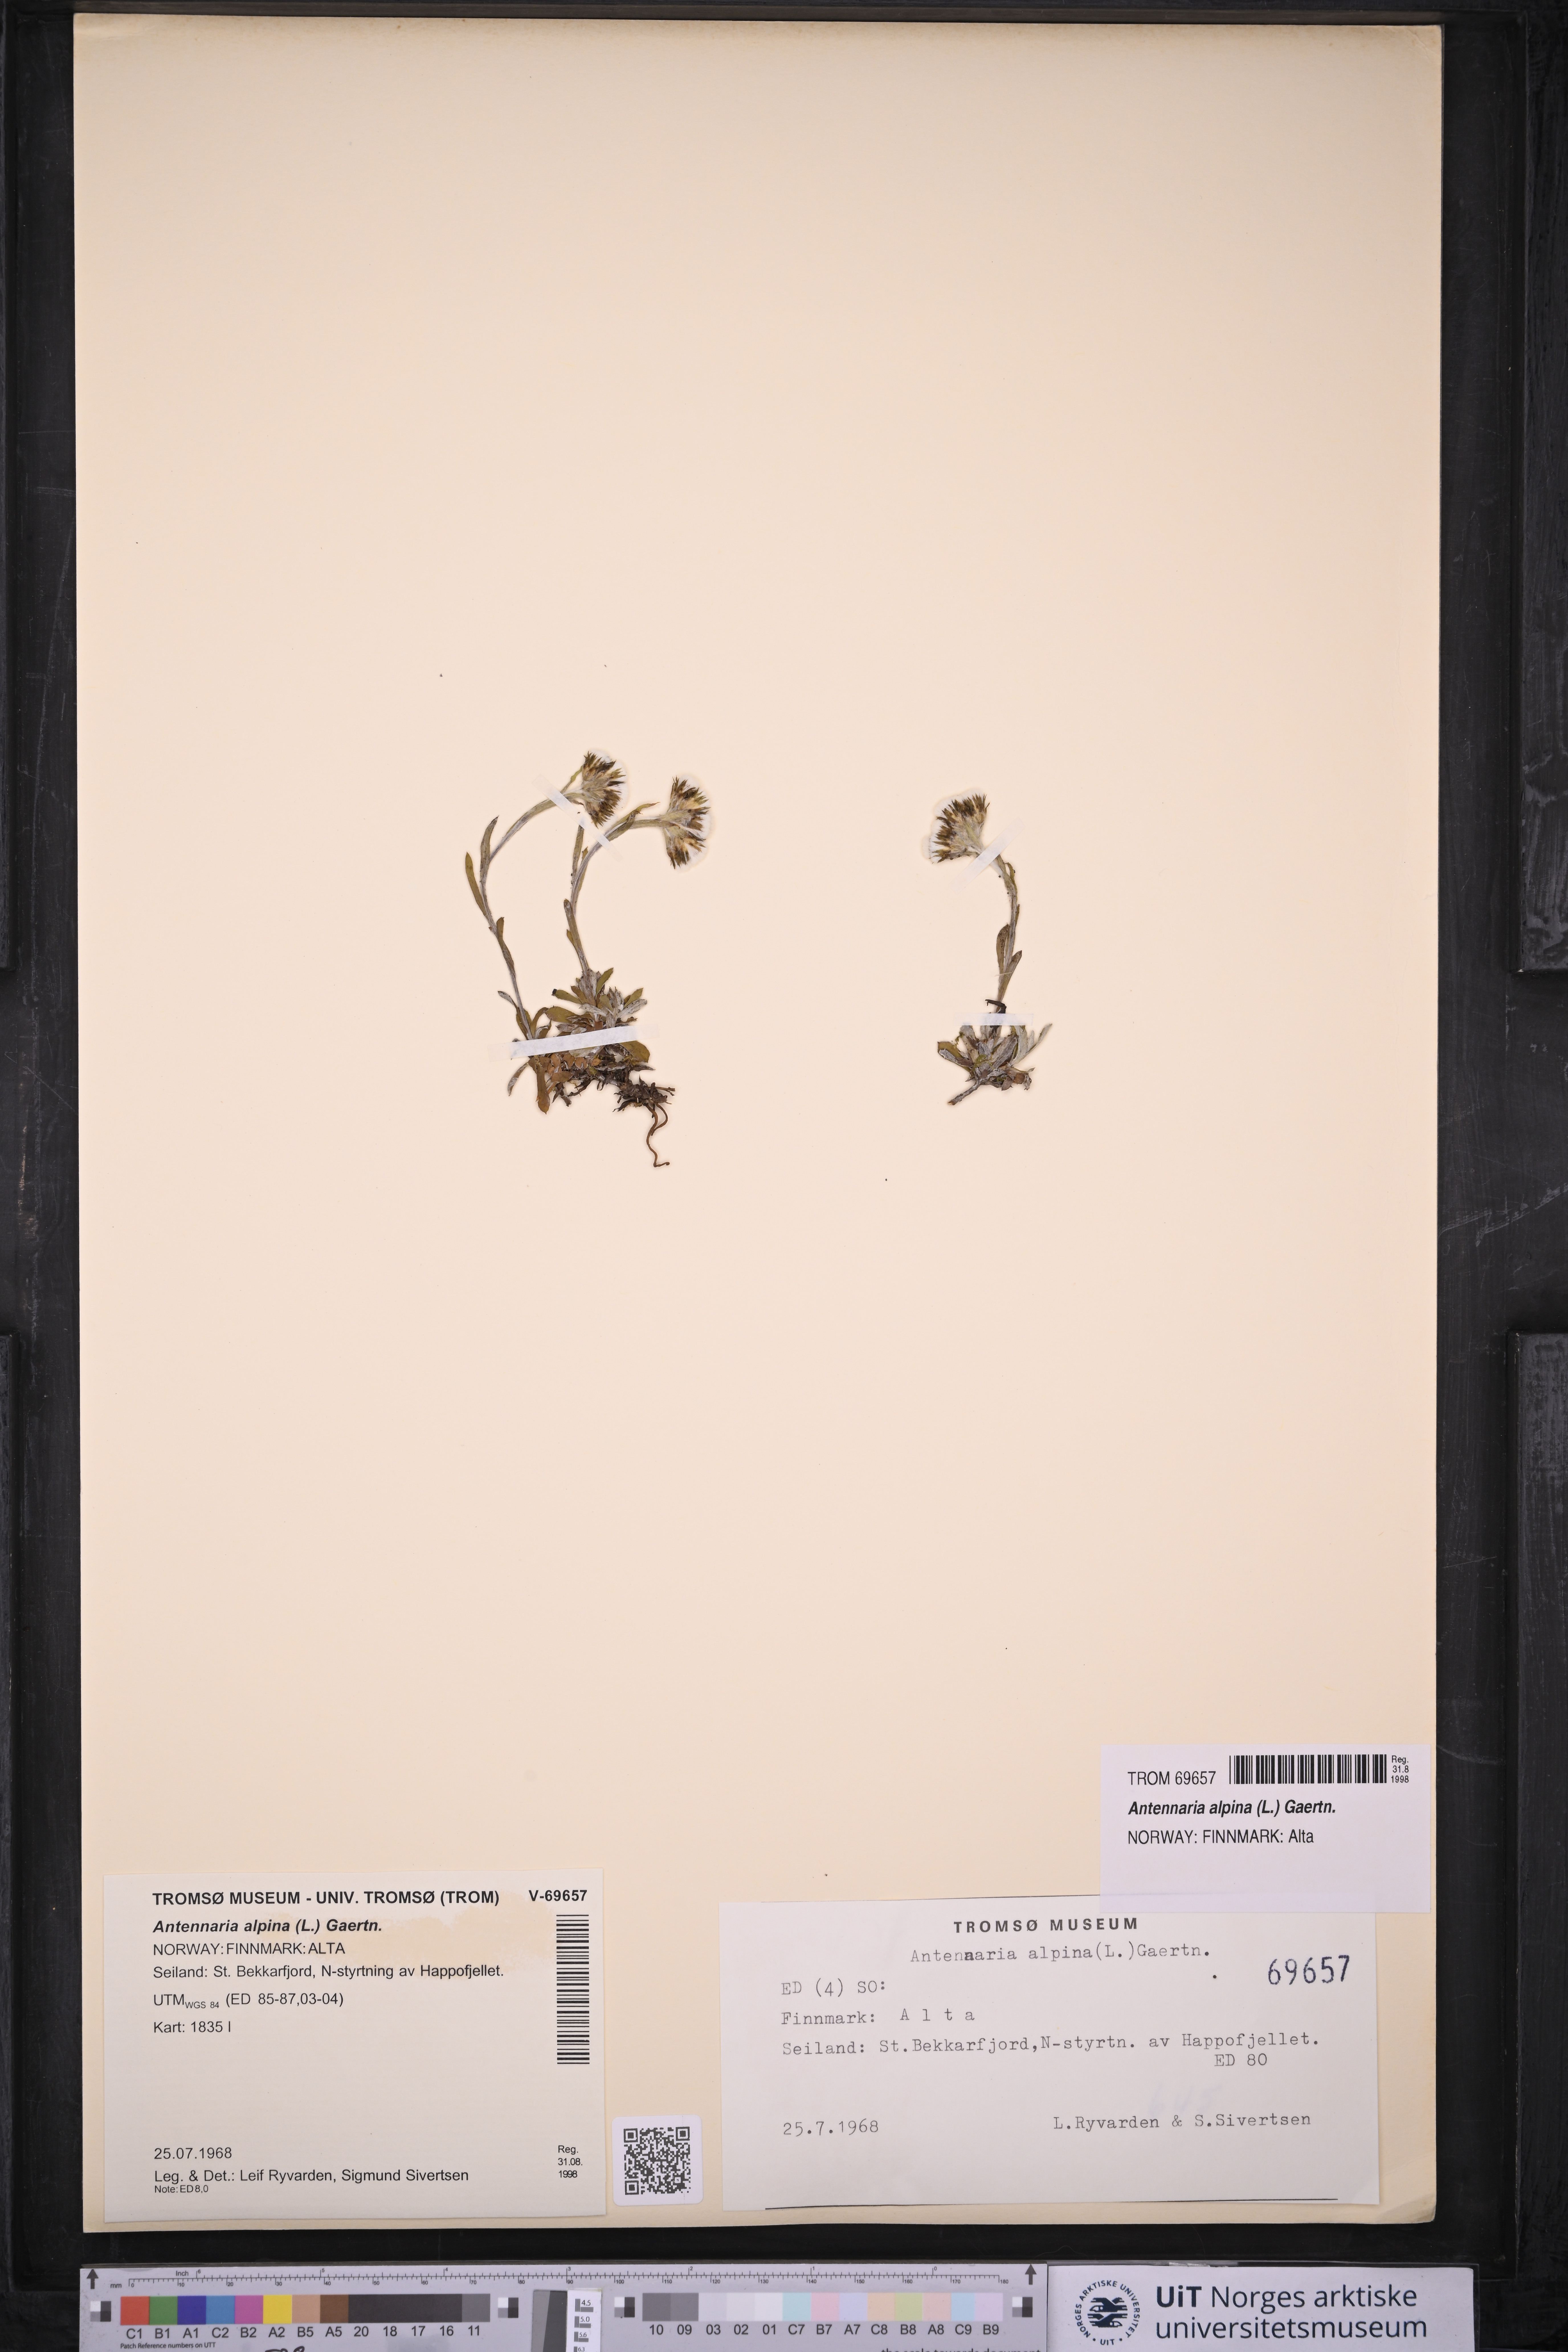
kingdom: Plantae
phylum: Tracheophyta
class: Magnoliopsida
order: Asterales
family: Asteraceae
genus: Antennaria
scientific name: Antennaria alpina
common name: Alpine pussytoes
